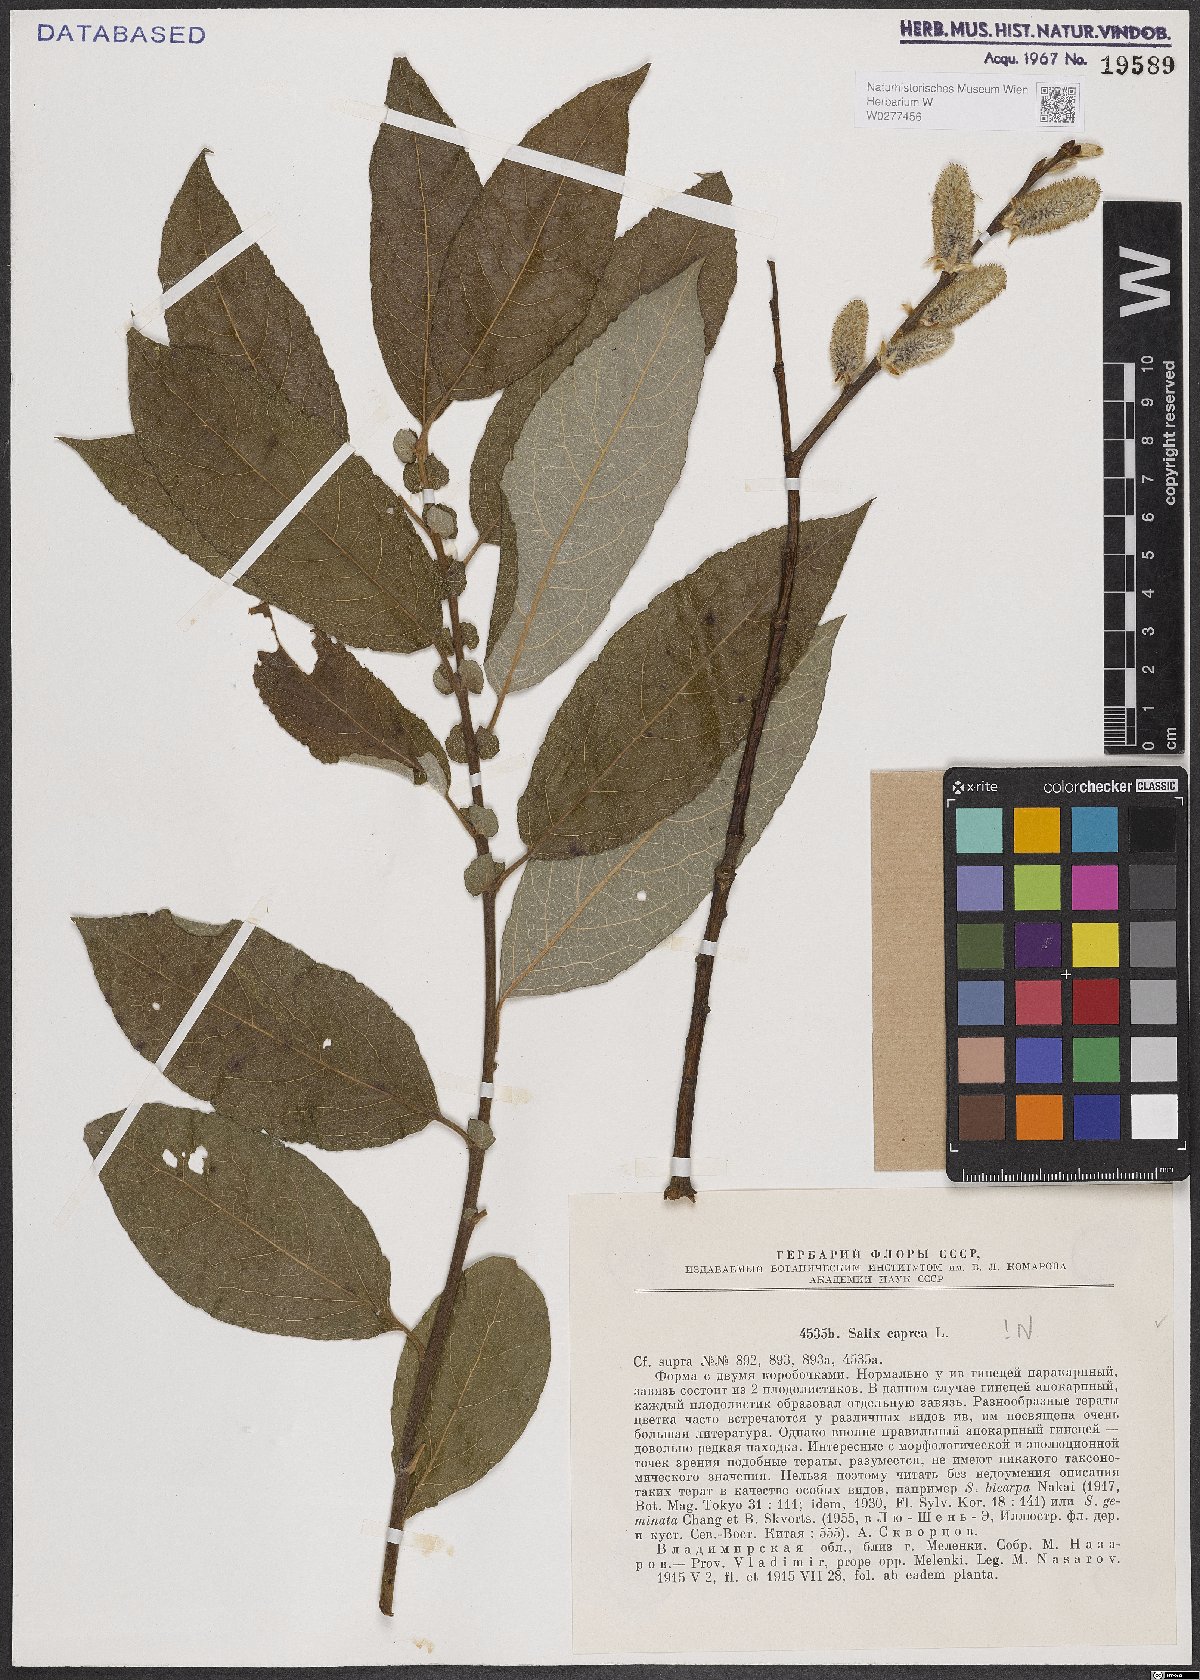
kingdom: Plantae
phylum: Tracheophyta
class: Magnoliopsida
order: Malpighiales
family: Salicaceae
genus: Salix
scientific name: Salix caprea
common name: Goat willow
